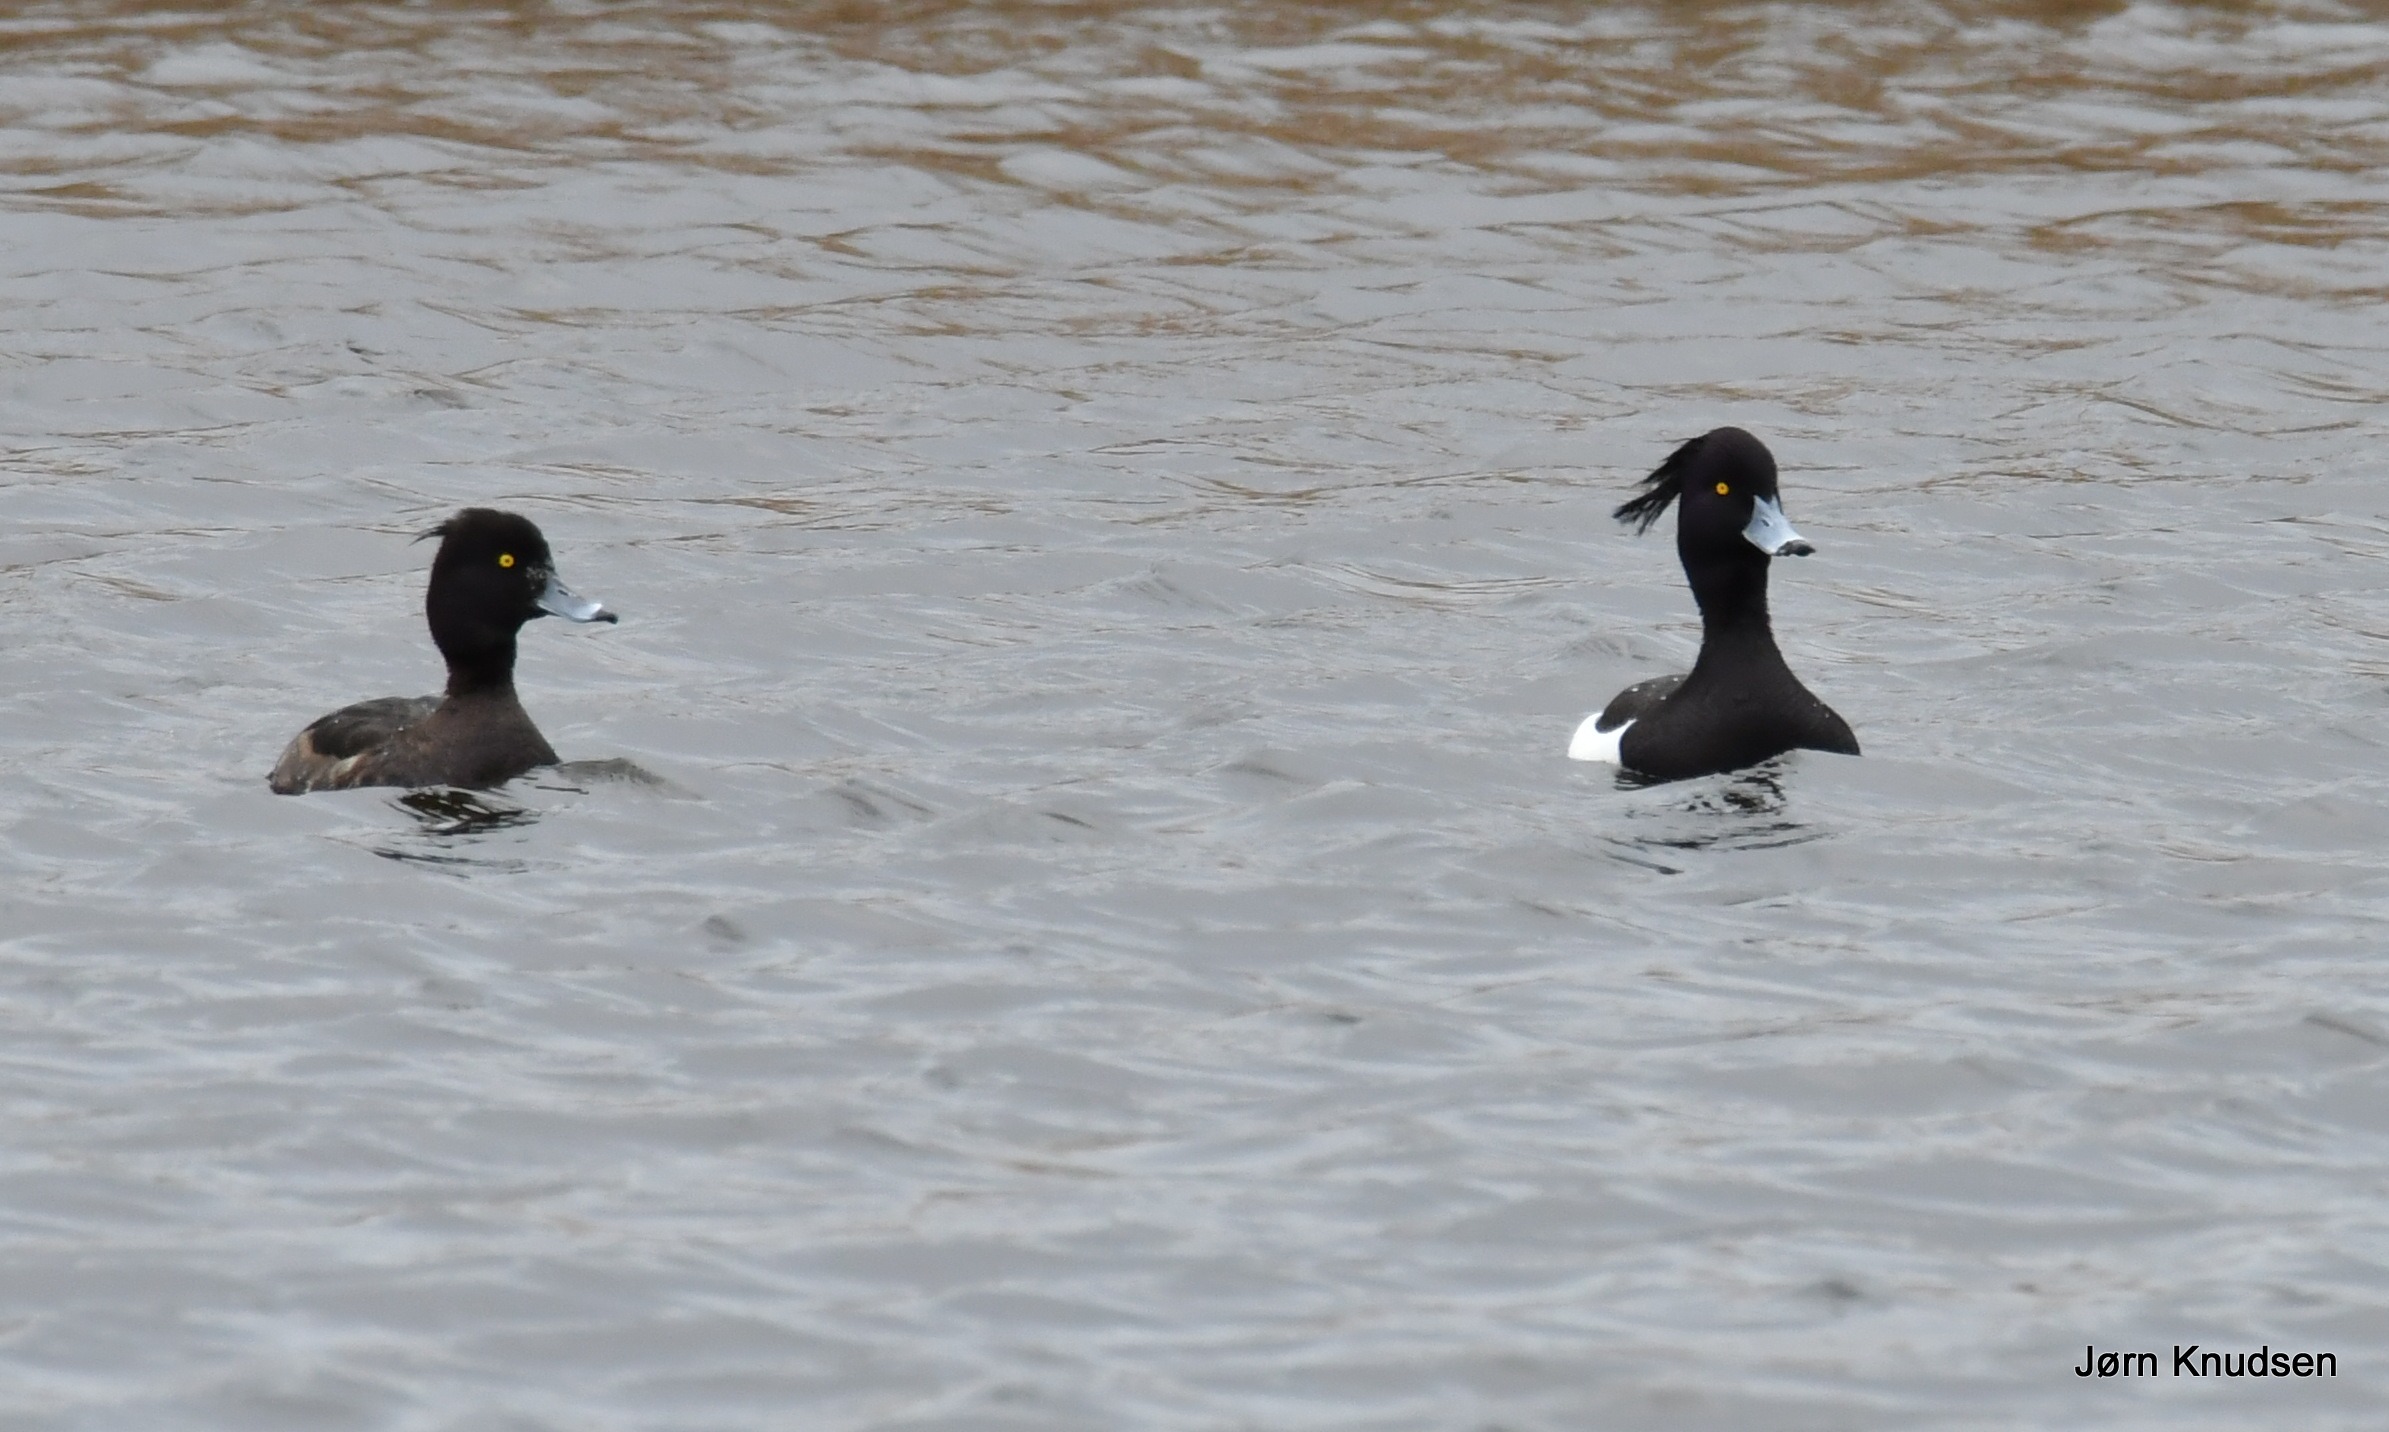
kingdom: Animalia
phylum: Chordata
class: Aves
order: Anseriformes
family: Anatidae
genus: Aythya
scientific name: Aythya fuligula
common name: Troldand
